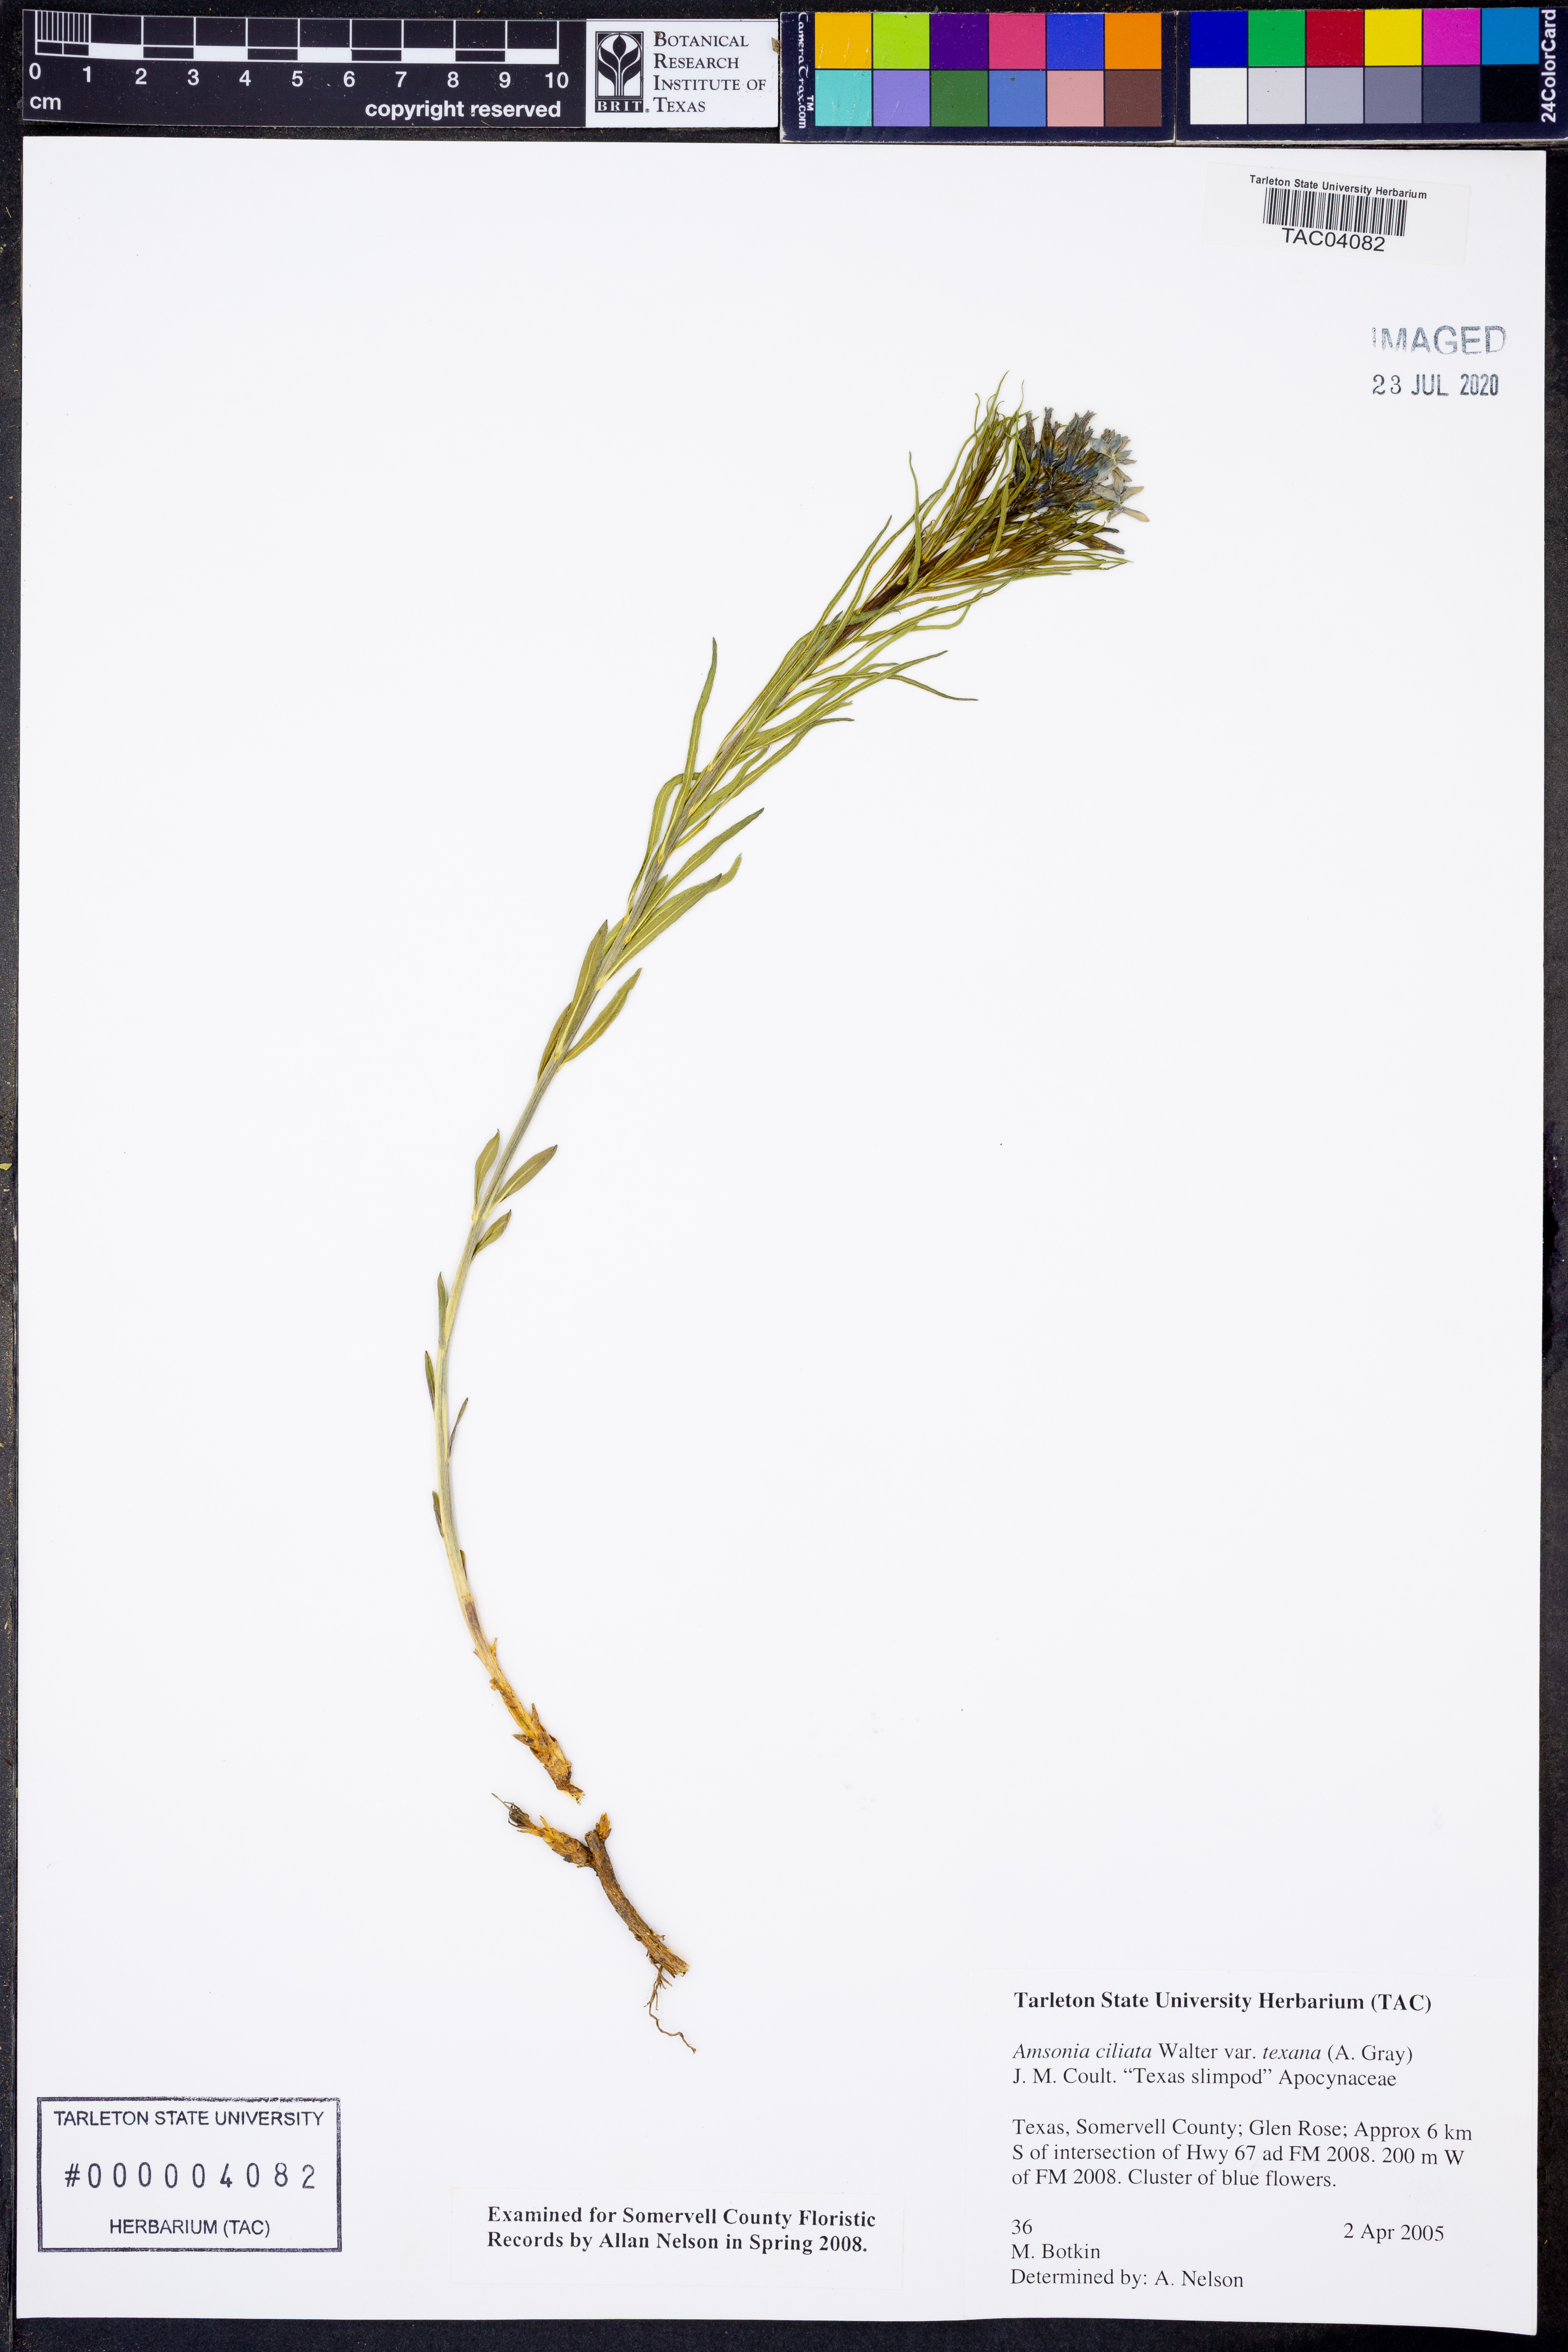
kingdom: Plantae
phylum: Tracheophyta
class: Magnoliopsida
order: Gentianales
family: Apocynaceae
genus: Amsonia
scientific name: Amsonia ciliata
